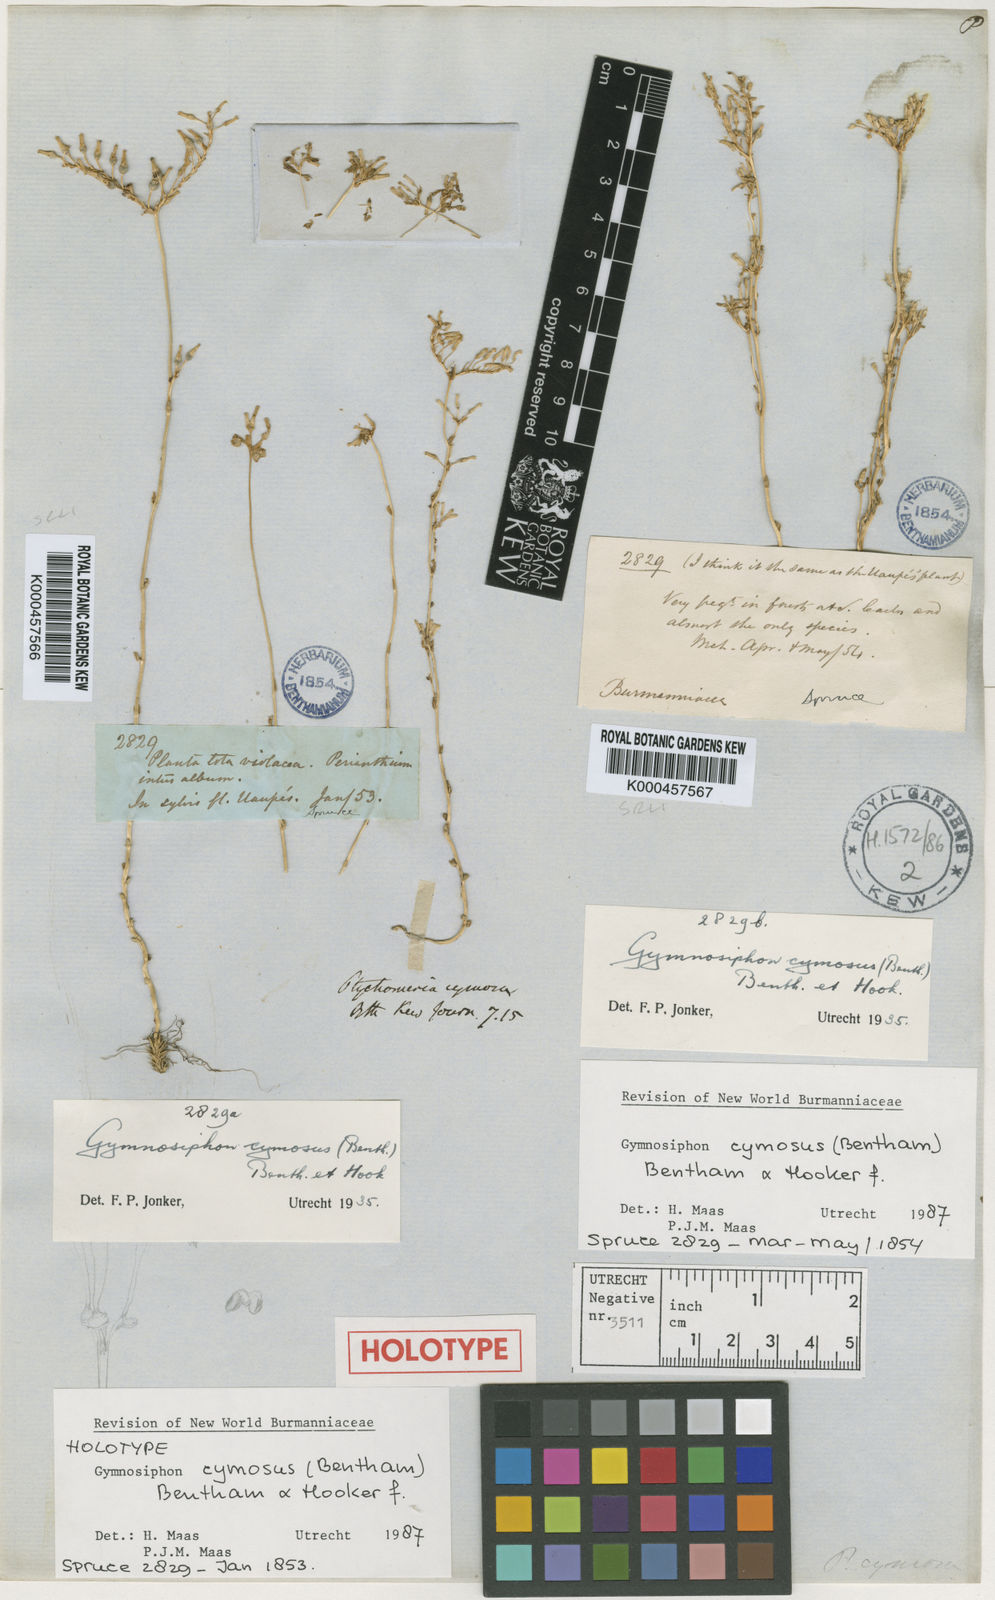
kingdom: Plantae
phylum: Tracheophyta
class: Liliopsida
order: Dioscoreales
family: Burmanniaceae
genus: Gymnosiphon
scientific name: Gymnosiphon cymosus
